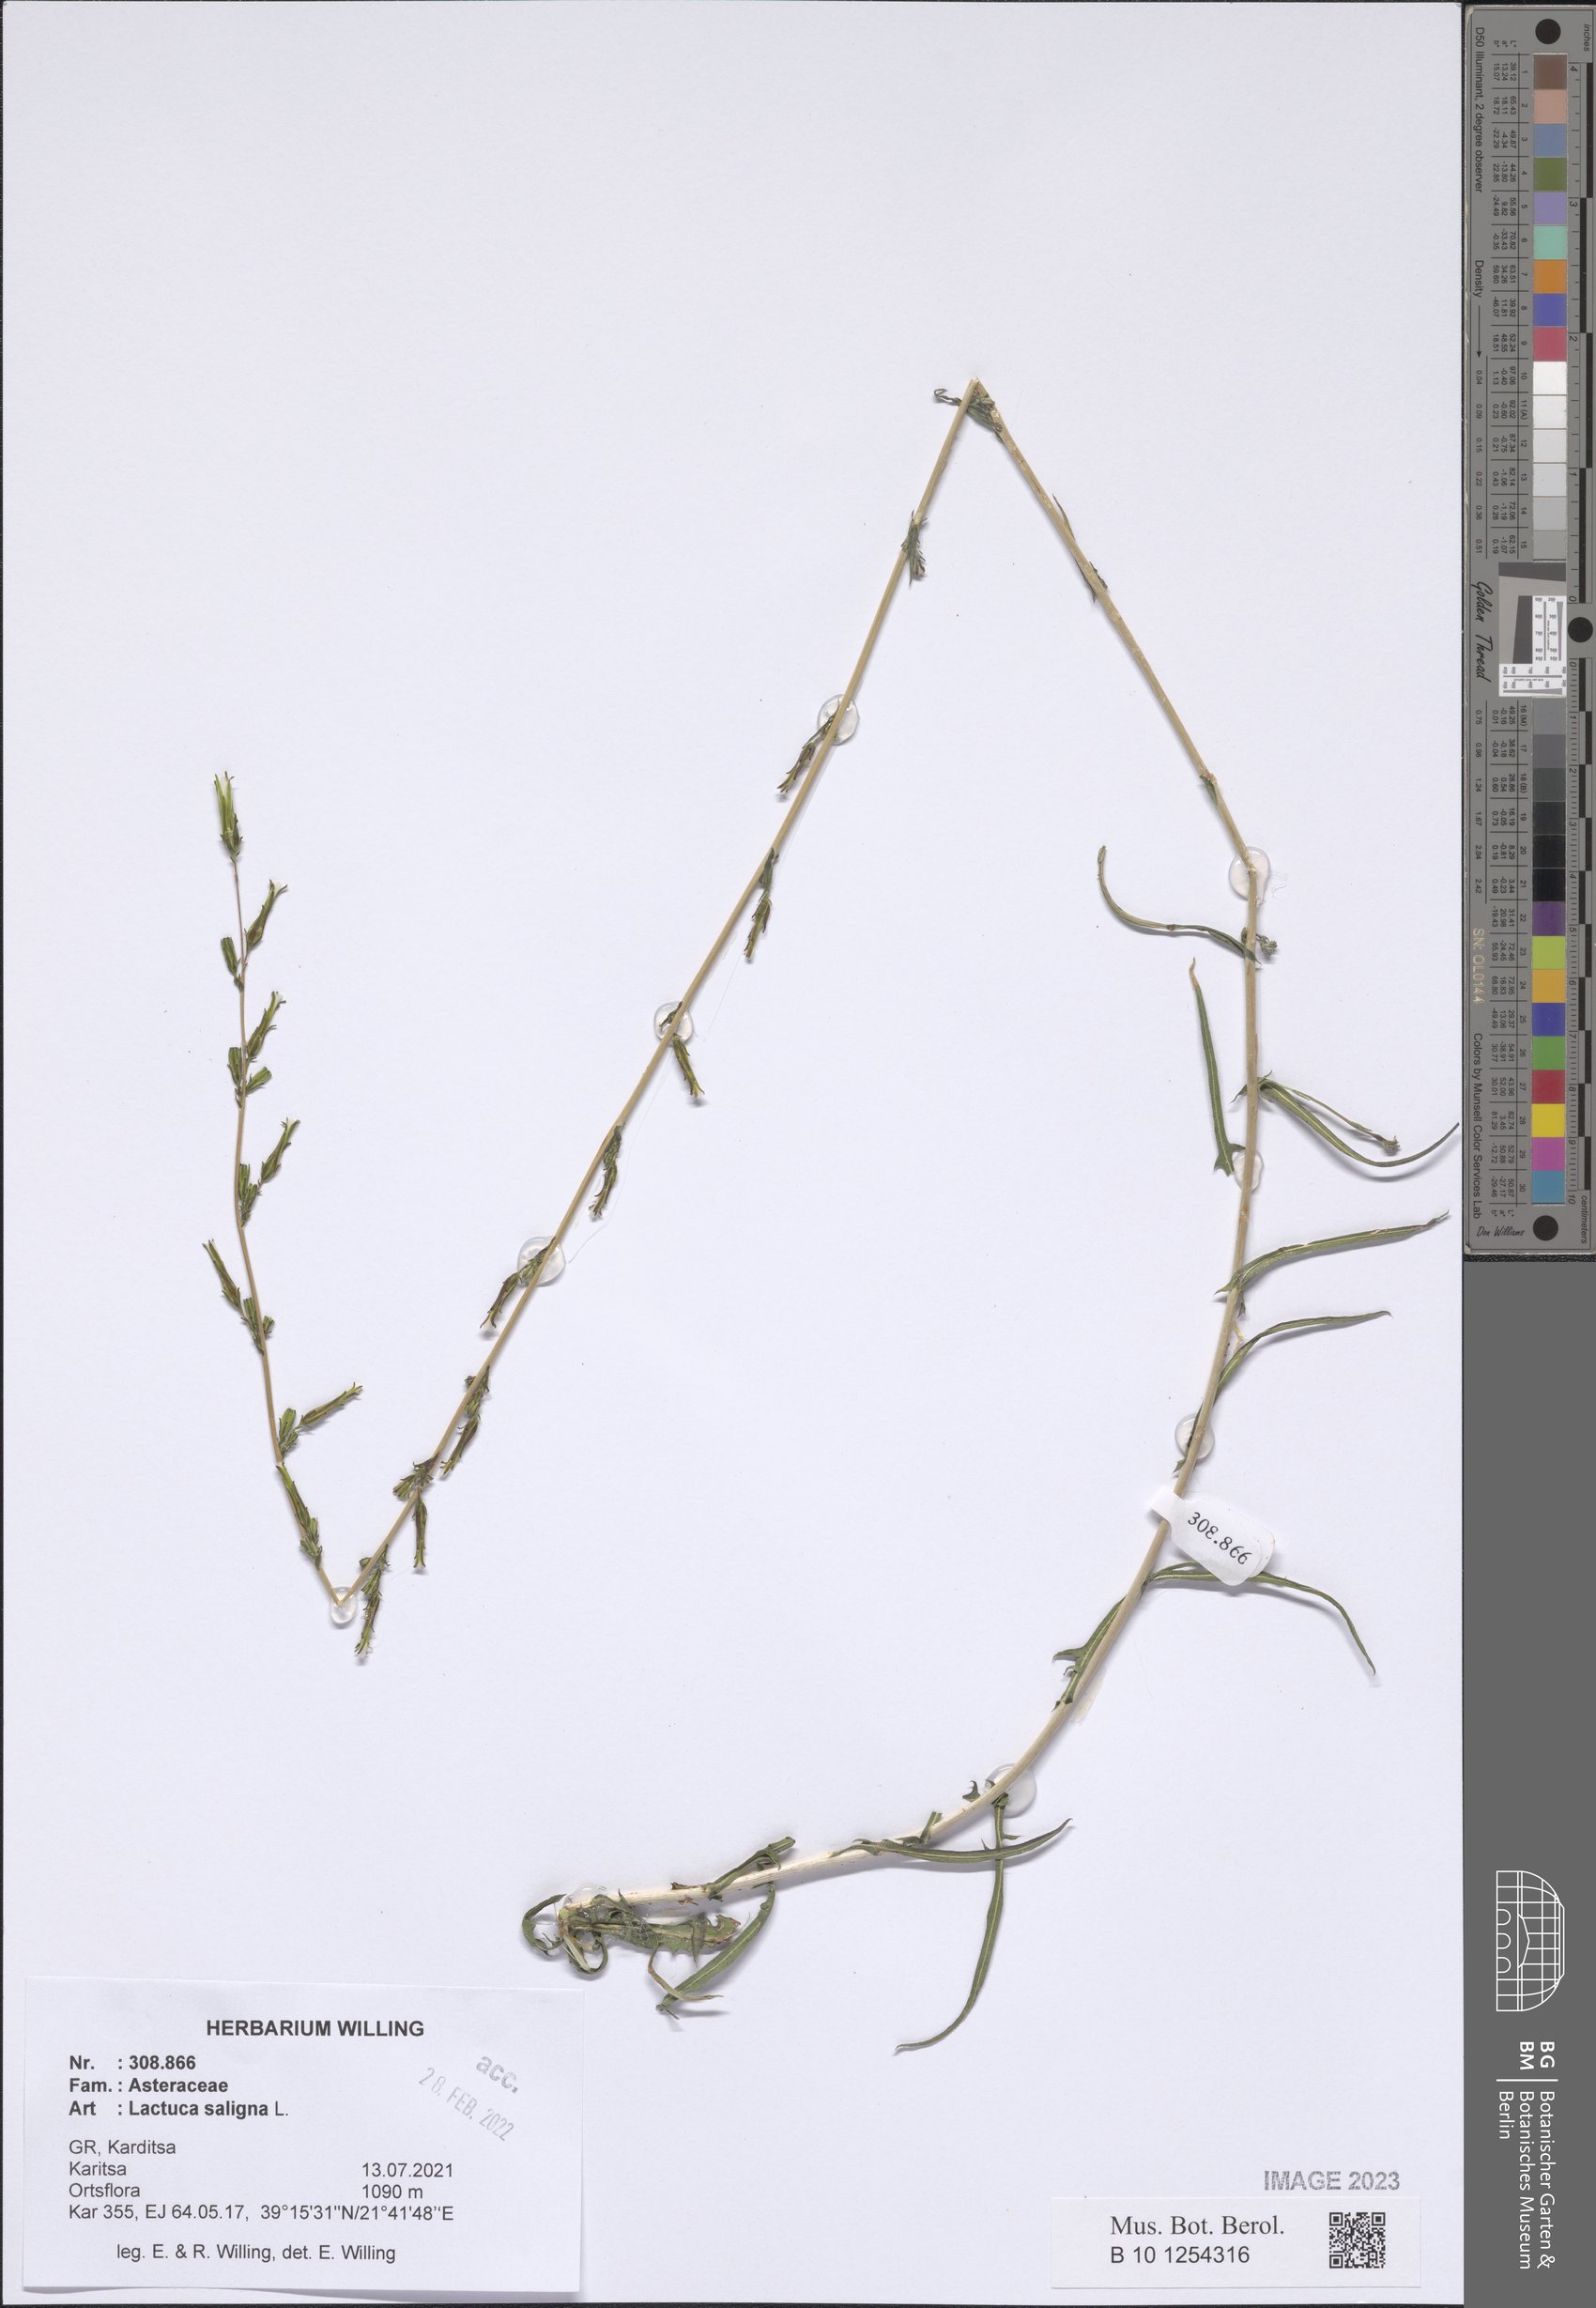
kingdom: Plantae
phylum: Tracheophyta
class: Magnoliopsida
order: Asterales
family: Asteraceae
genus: Lactuca
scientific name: Lactuca saligna
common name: Wild lettuce
